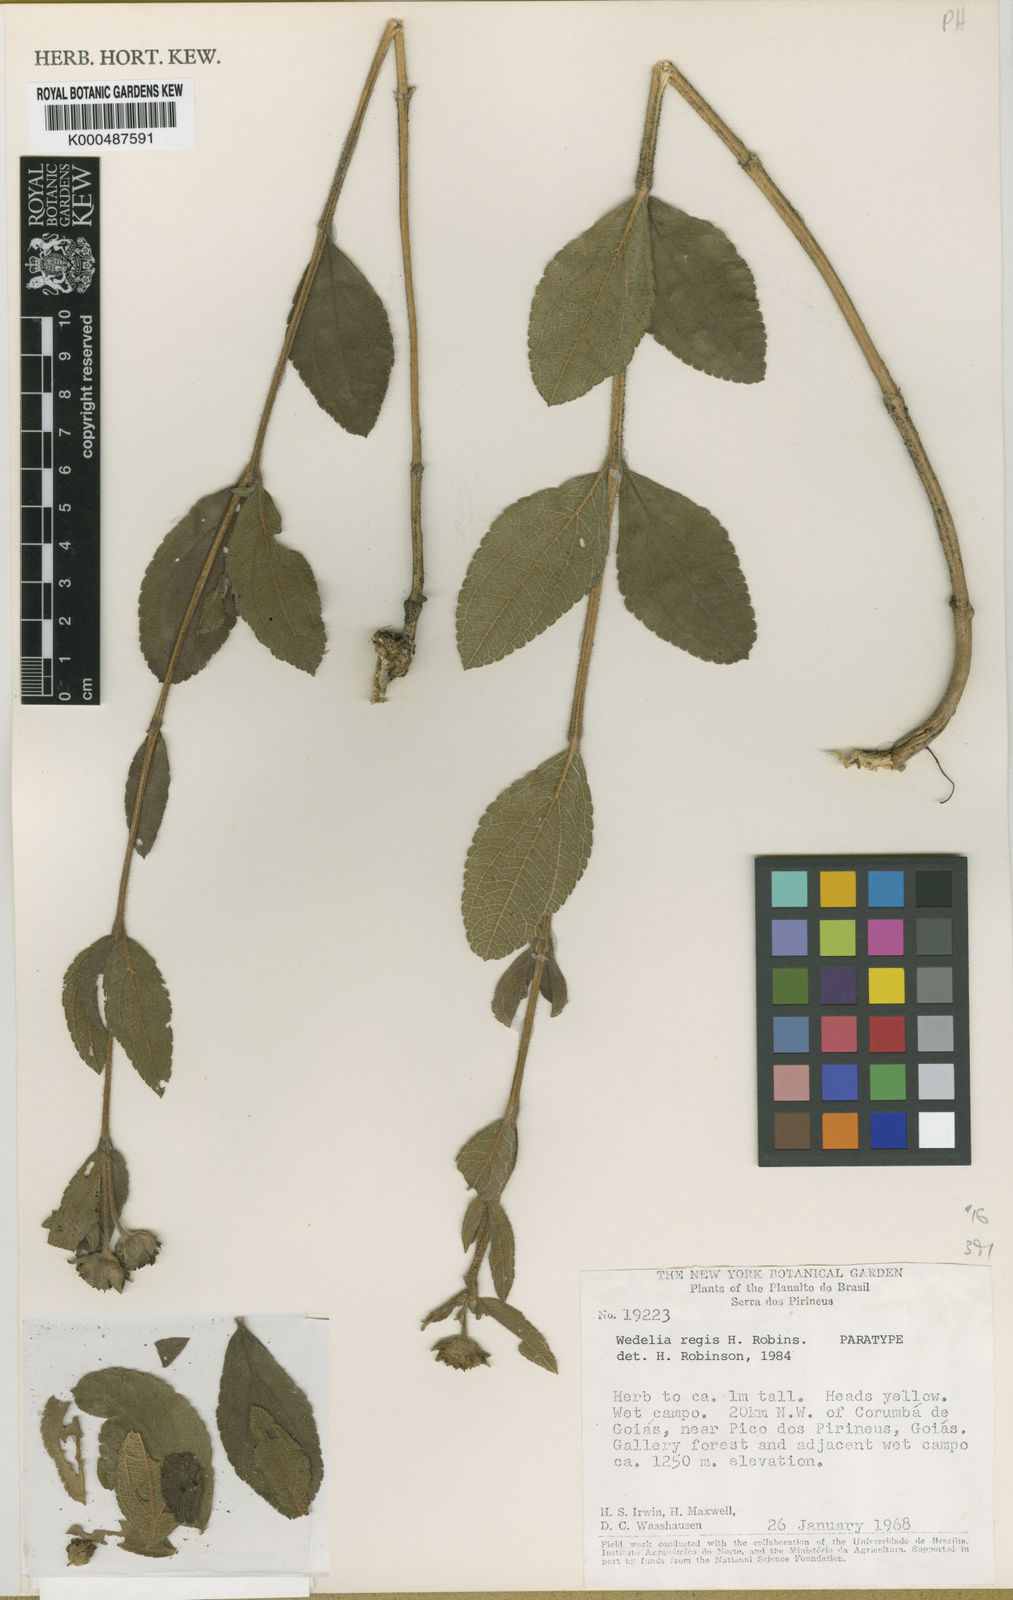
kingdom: Plantae
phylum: Tracheophyta
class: Magnoliopsida
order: Asterales
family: Asteraceae
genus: Wedelia
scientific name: Wedelia regis
